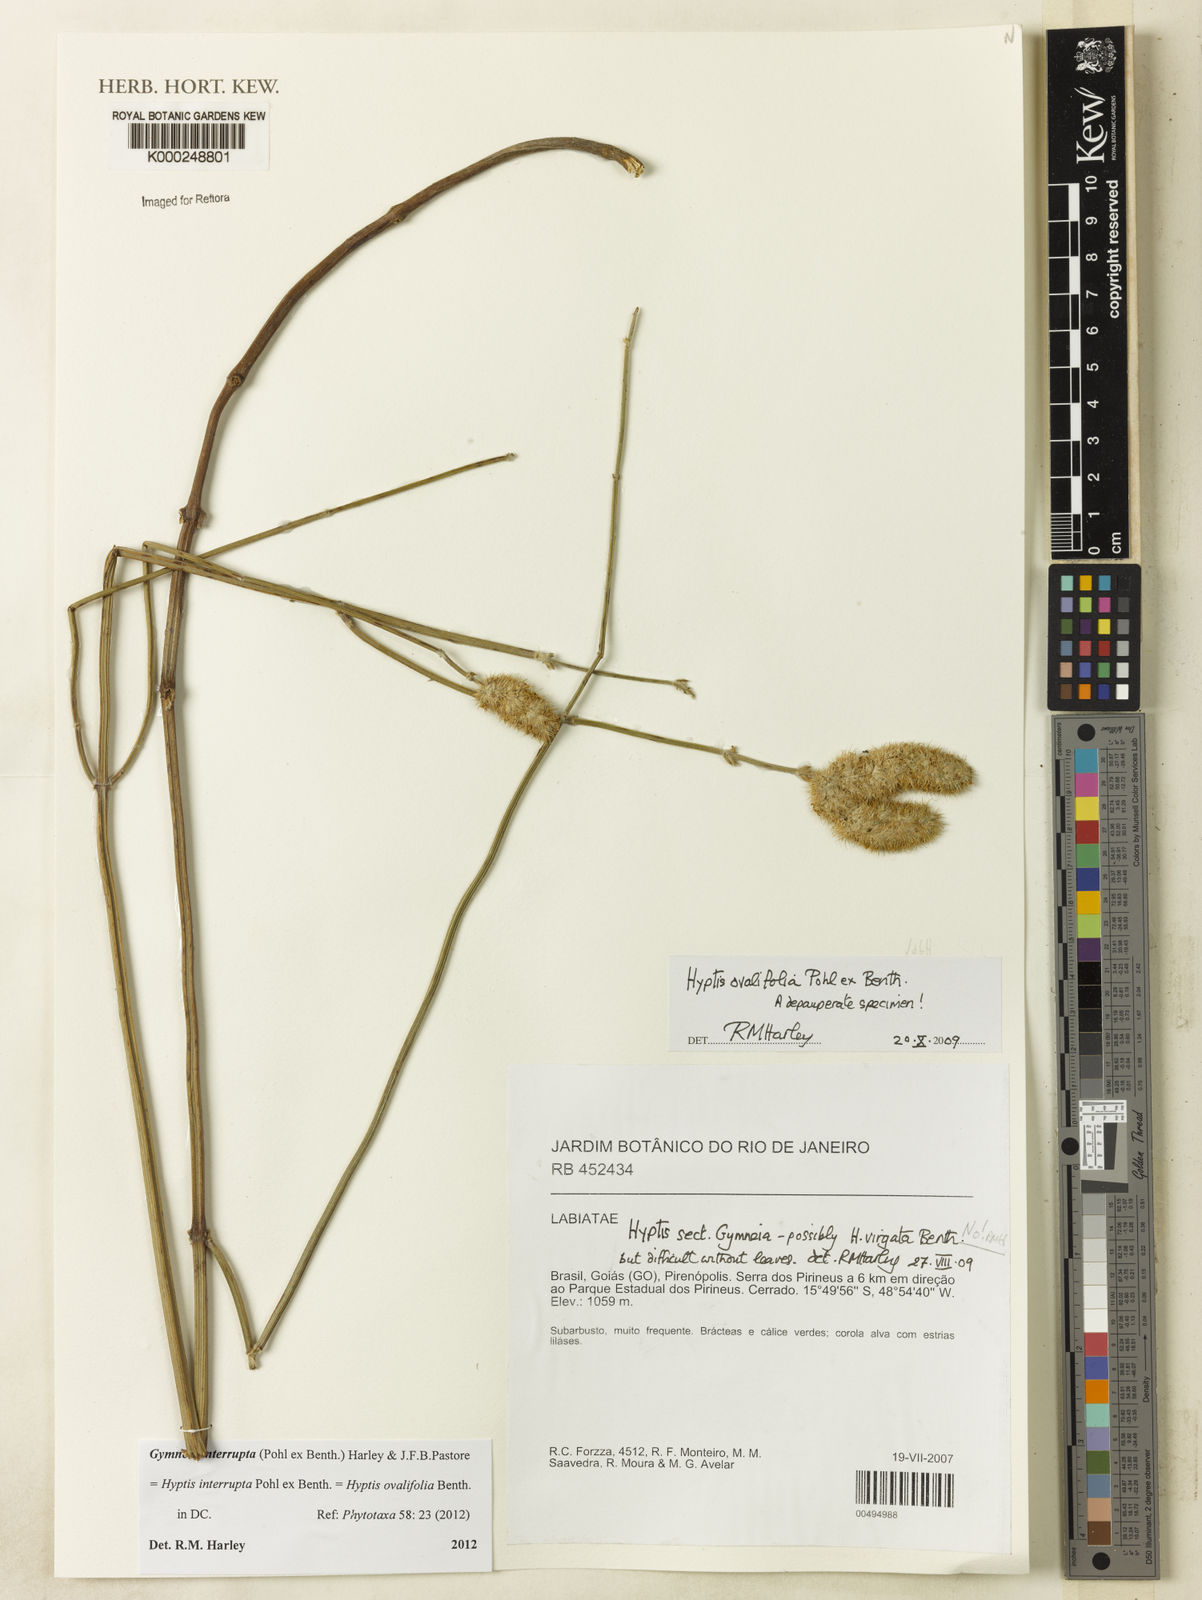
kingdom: Plantae
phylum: Tracheophyta
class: Magnoliopsida
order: Lamiales
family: Lamiaceae
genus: Hyptis
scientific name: Hyptis ovalifolia
